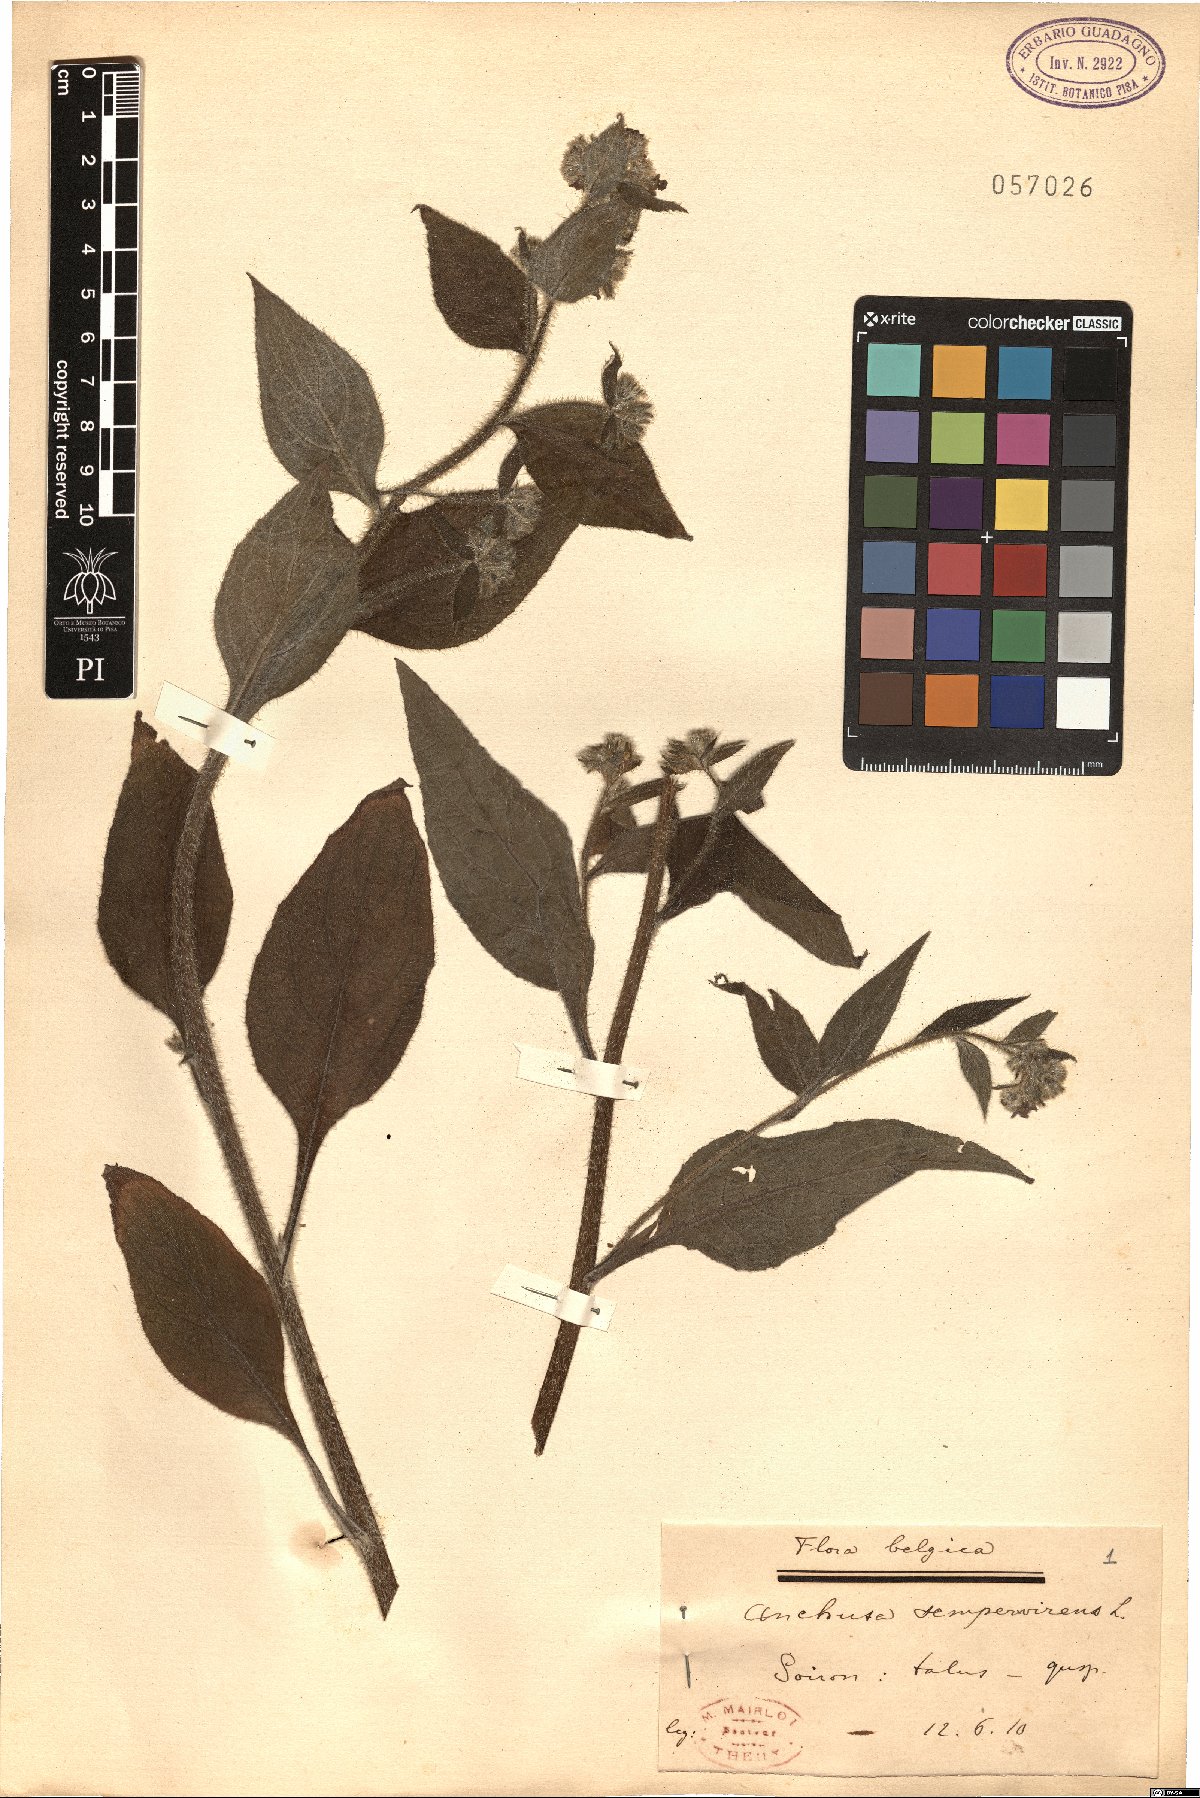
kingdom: Plantae
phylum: Tracheophyta
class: Magnoliopsida
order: Boraginales
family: Boraginaceae
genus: Pentaglottis
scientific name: Pentaglottis sempervirens
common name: Green alkanet
